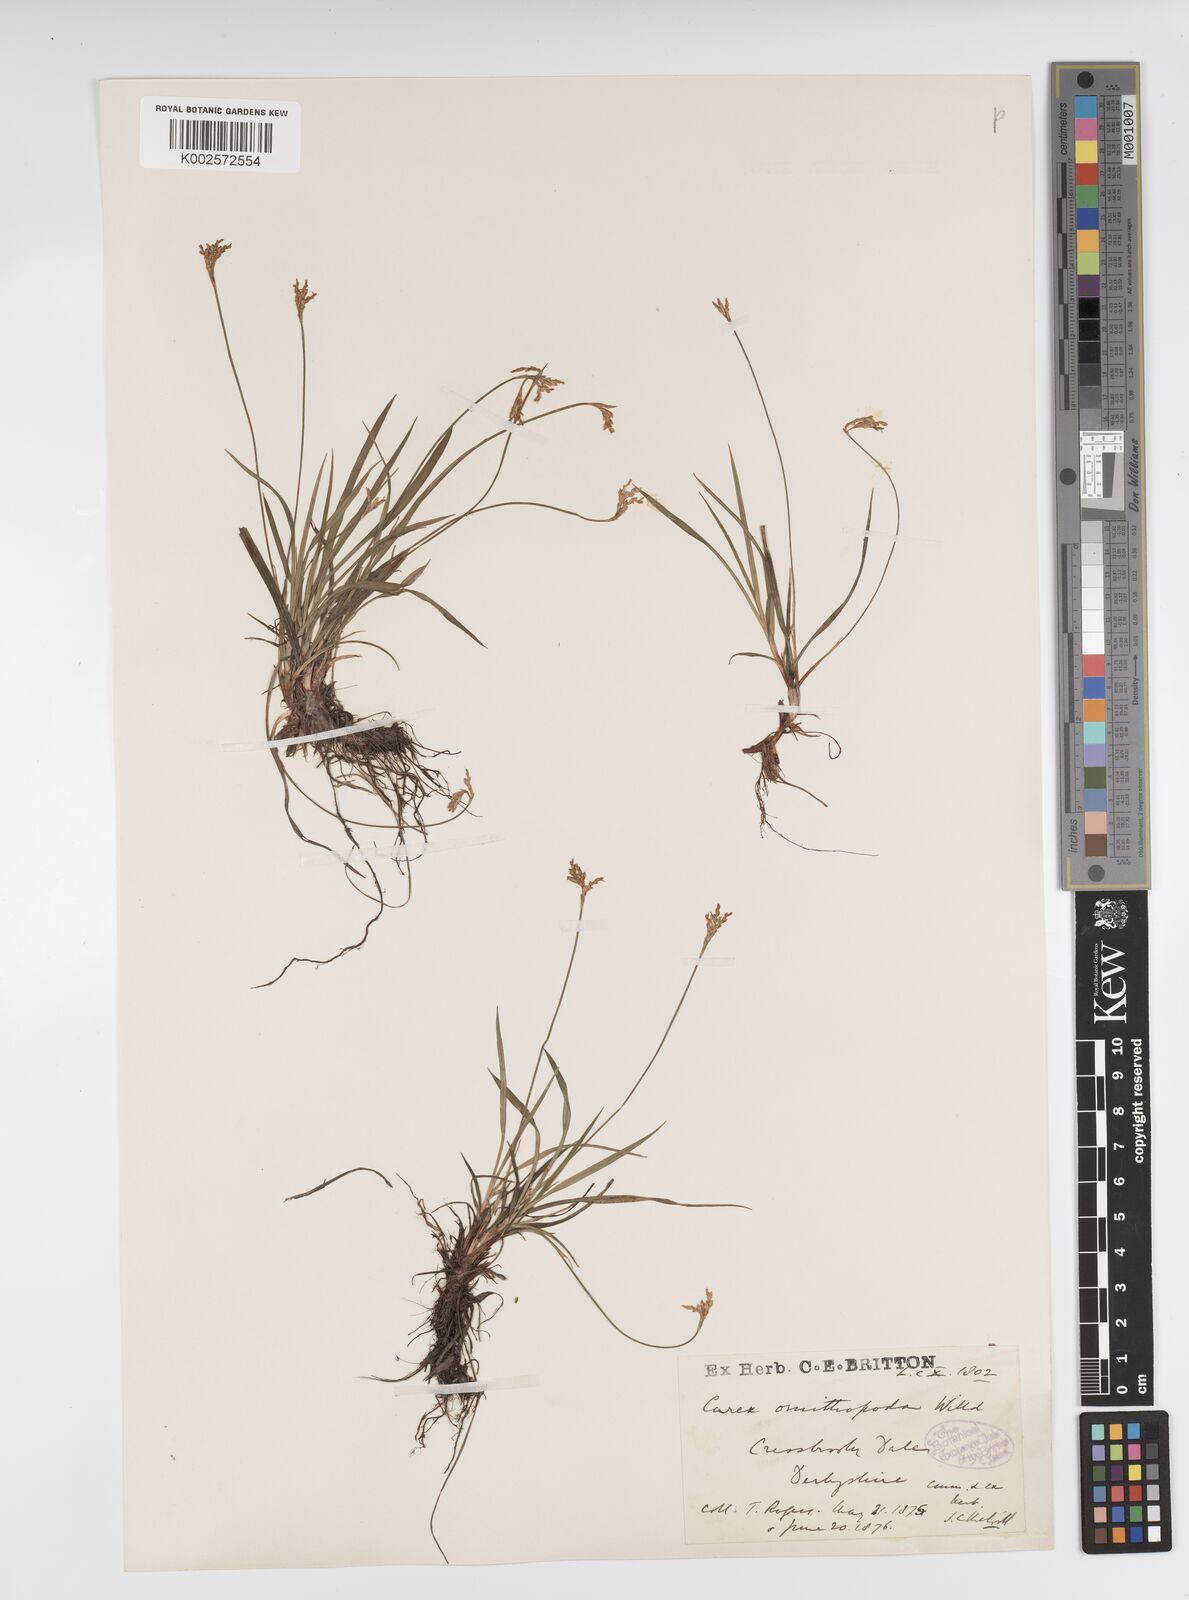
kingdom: Plantae
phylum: Tracheophyta
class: Liliopsida
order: Poales
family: Cyperaceae
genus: Carex
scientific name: Carex ornithopoda
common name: Bird's-foot sedge
